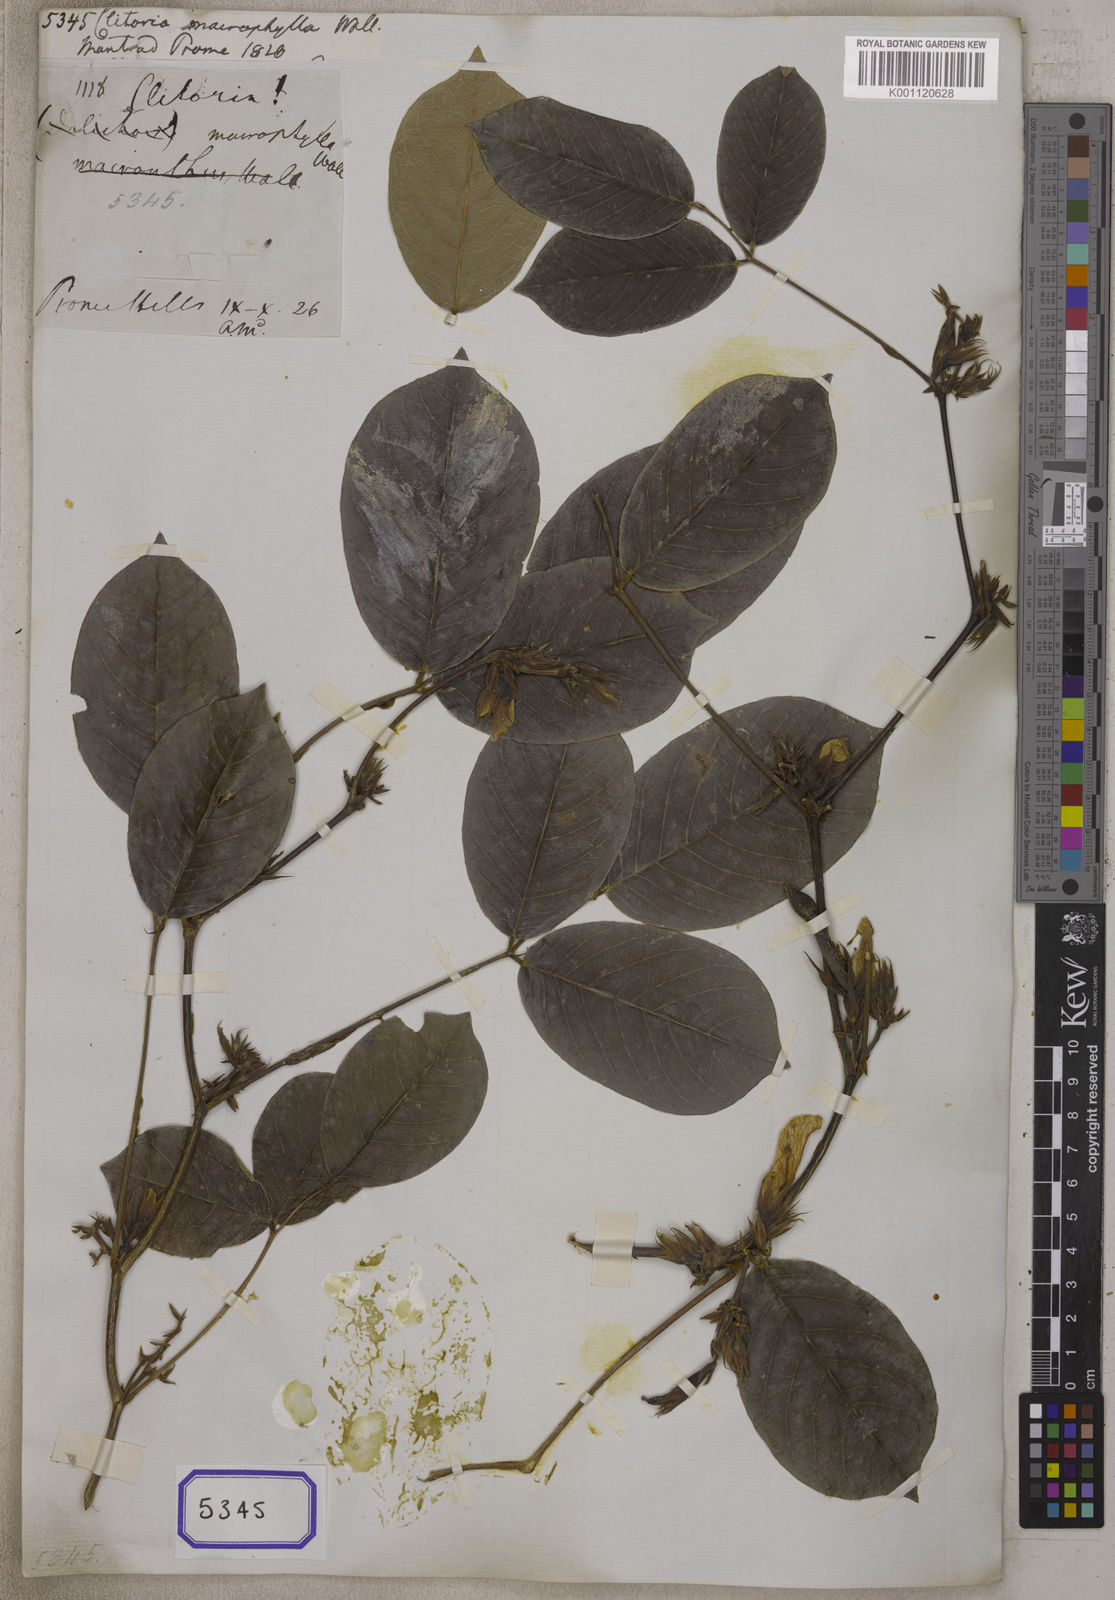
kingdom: Plantae
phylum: Tracheophyta
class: Magnoliopsida
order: Fabales
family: Fabaceae
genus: Clitoria
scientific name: Clitoria
